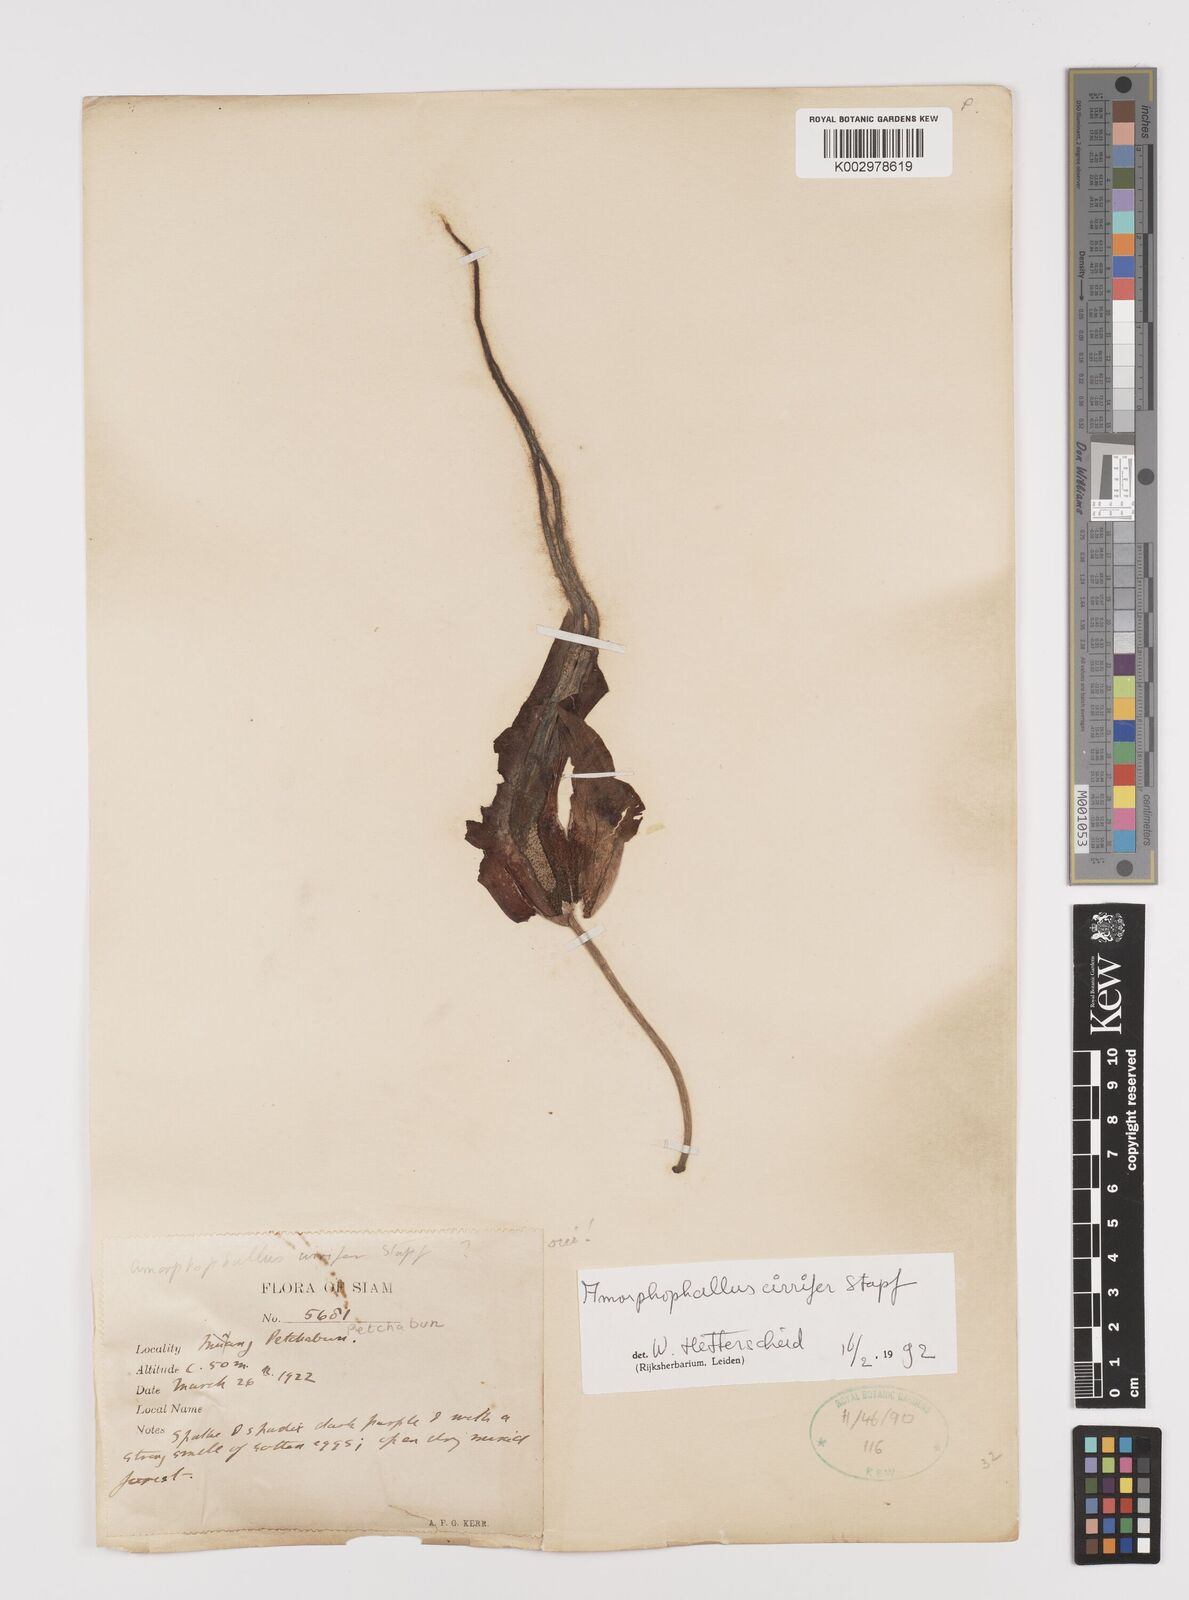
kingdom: Plantae
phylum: Tracheophyta
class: Liliopsida
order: Alismatales
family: Araceae
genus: Amorphophallus
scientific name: Amorphophallus cirrifer
